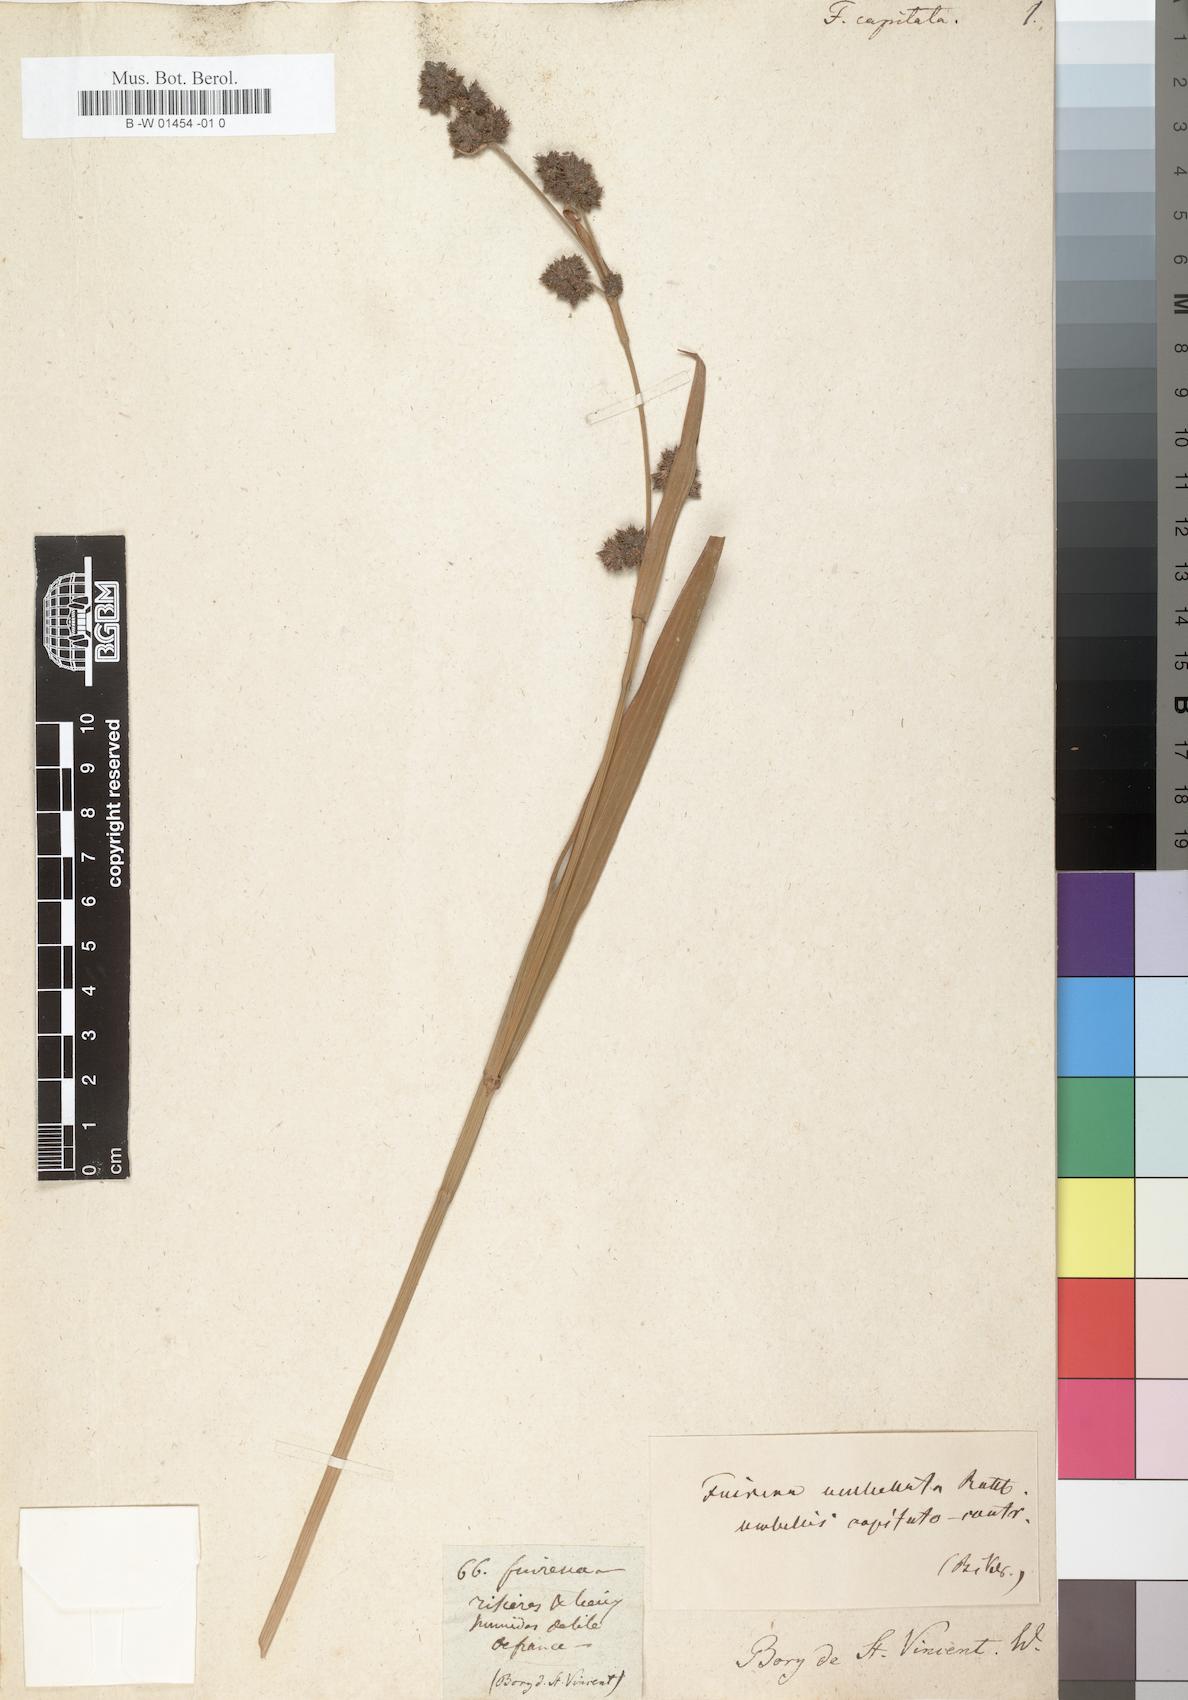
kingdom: Plantae
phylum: Tracheophyta
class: Liliopsida
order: Poales
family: Cyperaceae
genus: Fuirena
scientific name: Fuirena
